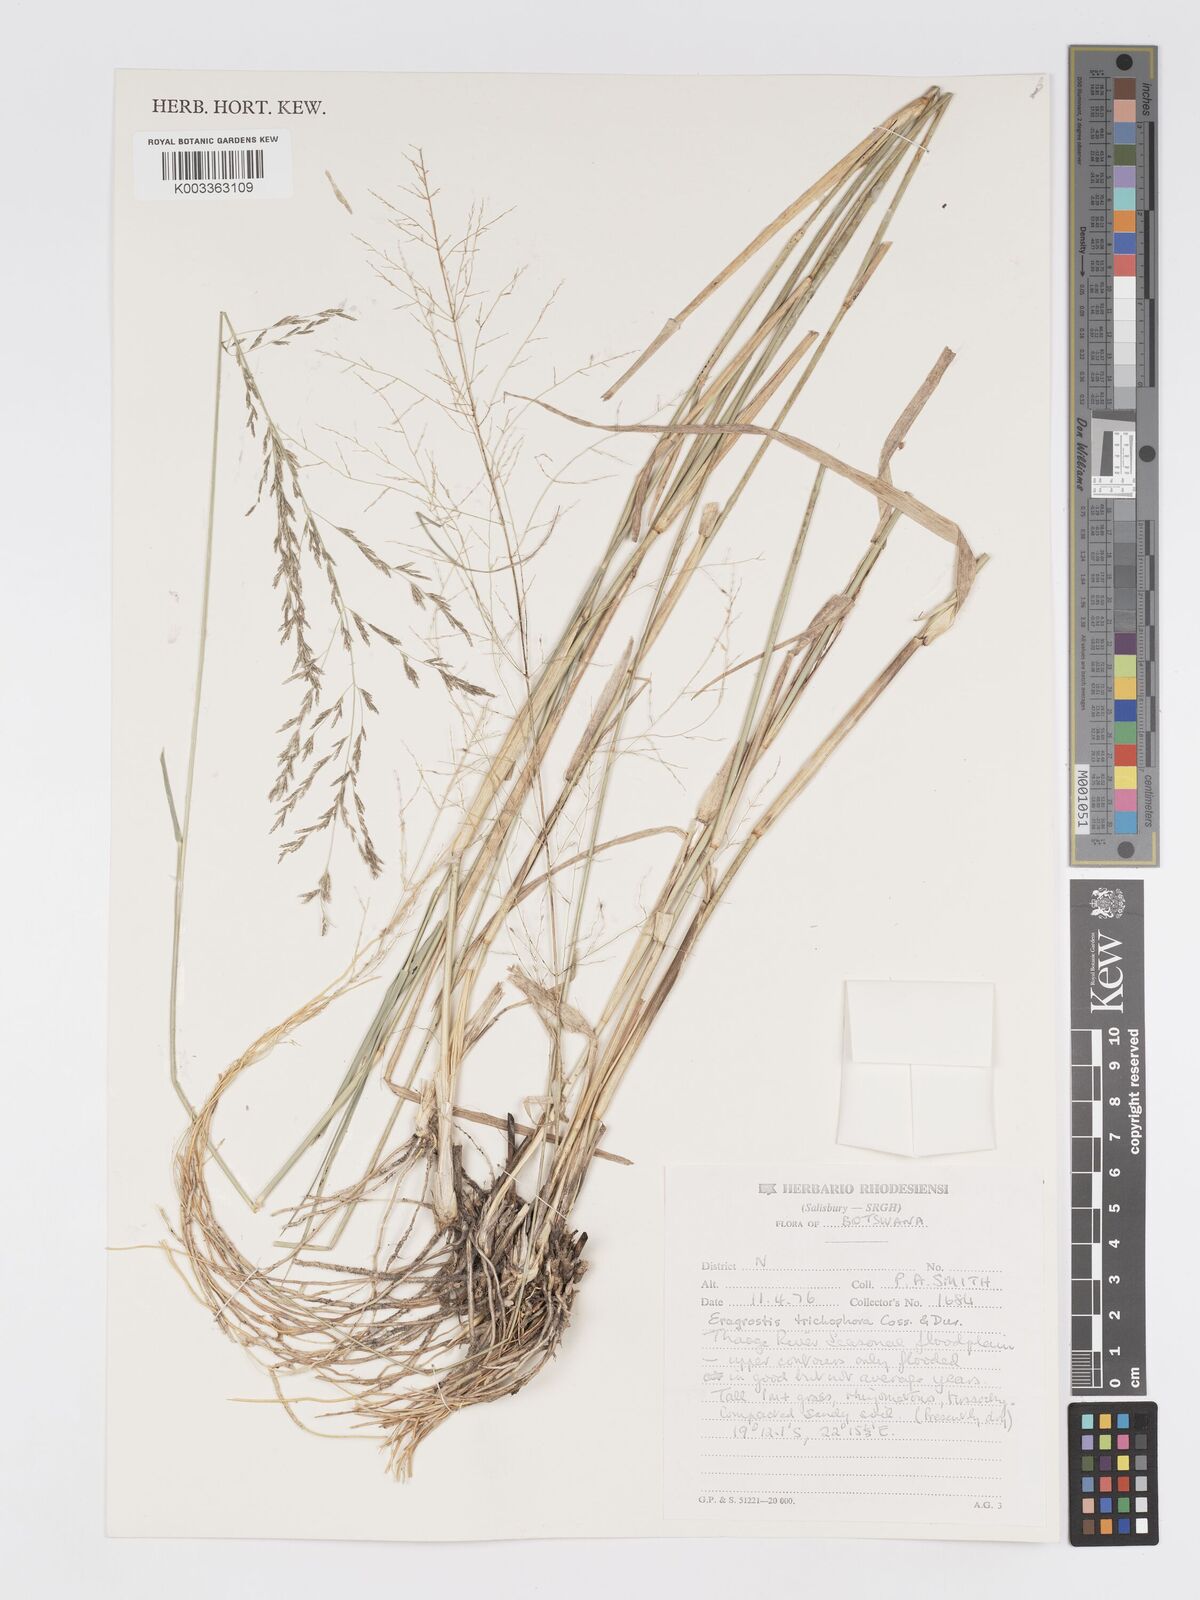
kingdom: Plantae
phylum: Tracheophyta
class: Liliopsida
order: Poales
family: Poaceae
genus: Eragrostis
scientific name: Eragrostis cylindriflora
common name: Cylinderflower lovegrass
